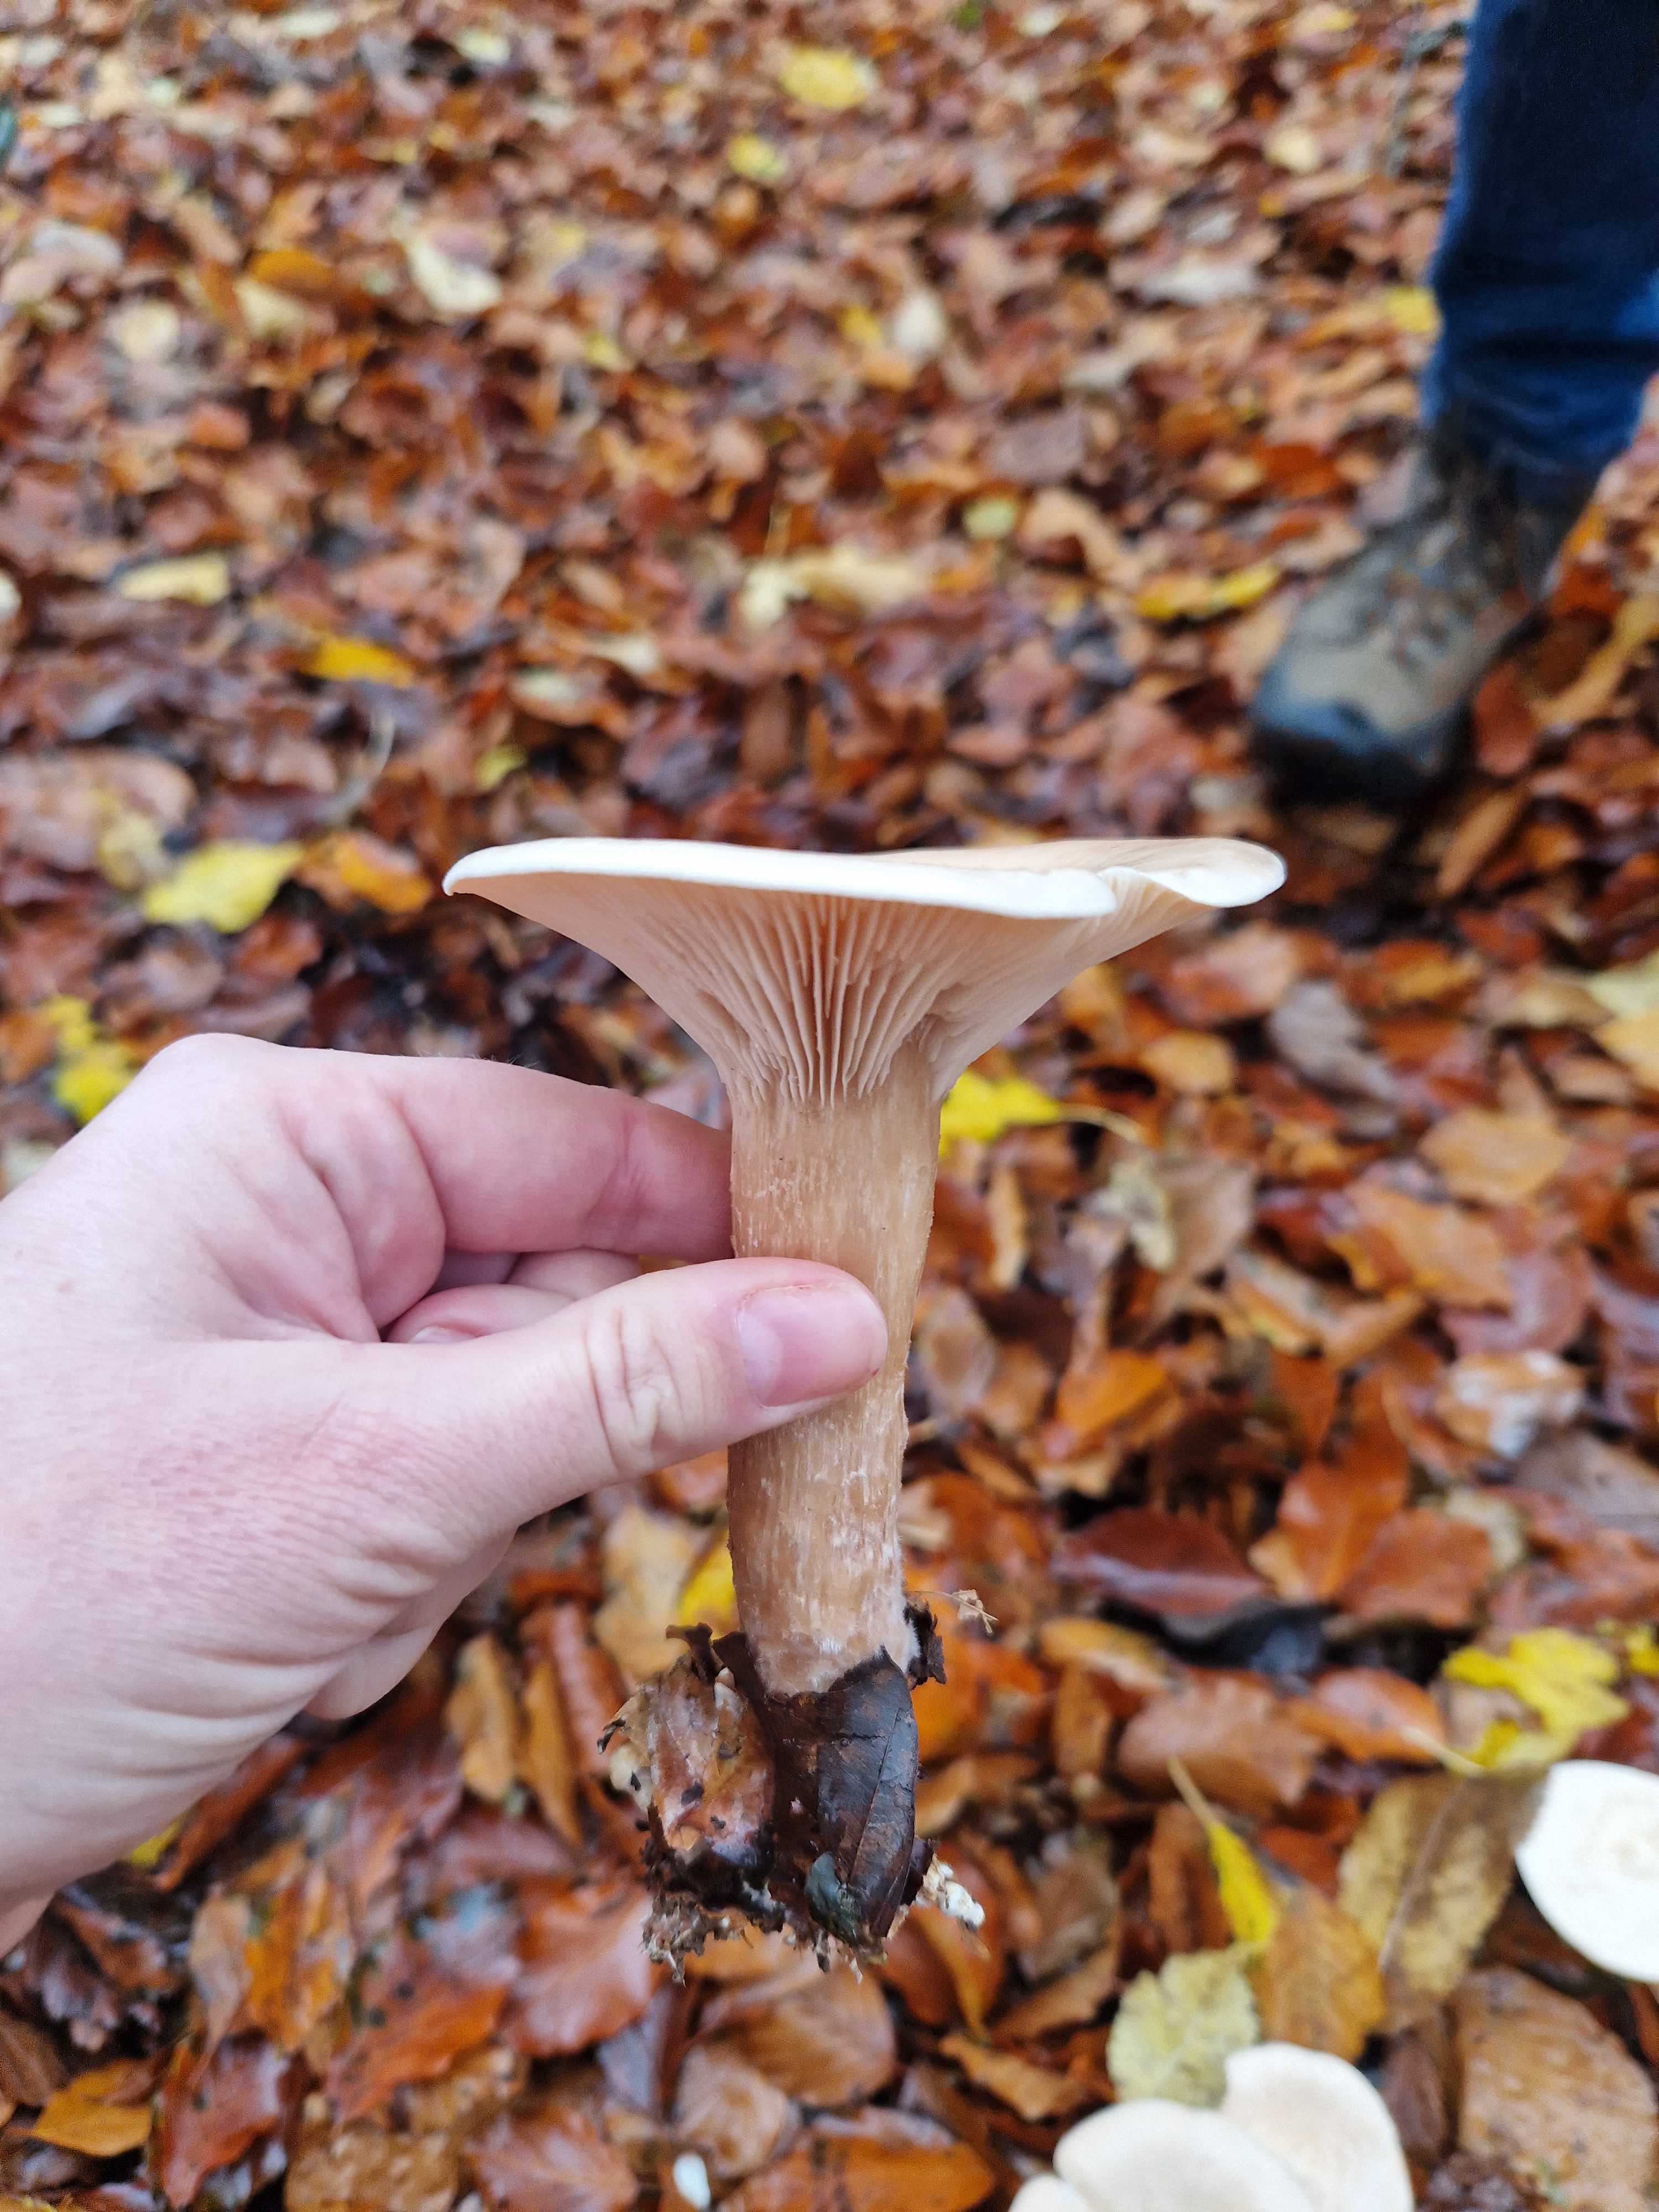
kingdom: Fungi
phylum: Basidiomycota
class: Agaricomycetes
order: Agaricales
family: Tricholomataceae
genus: Infundibulicybe
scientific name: Infundibulicybe geotropa
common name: stor tragthat
